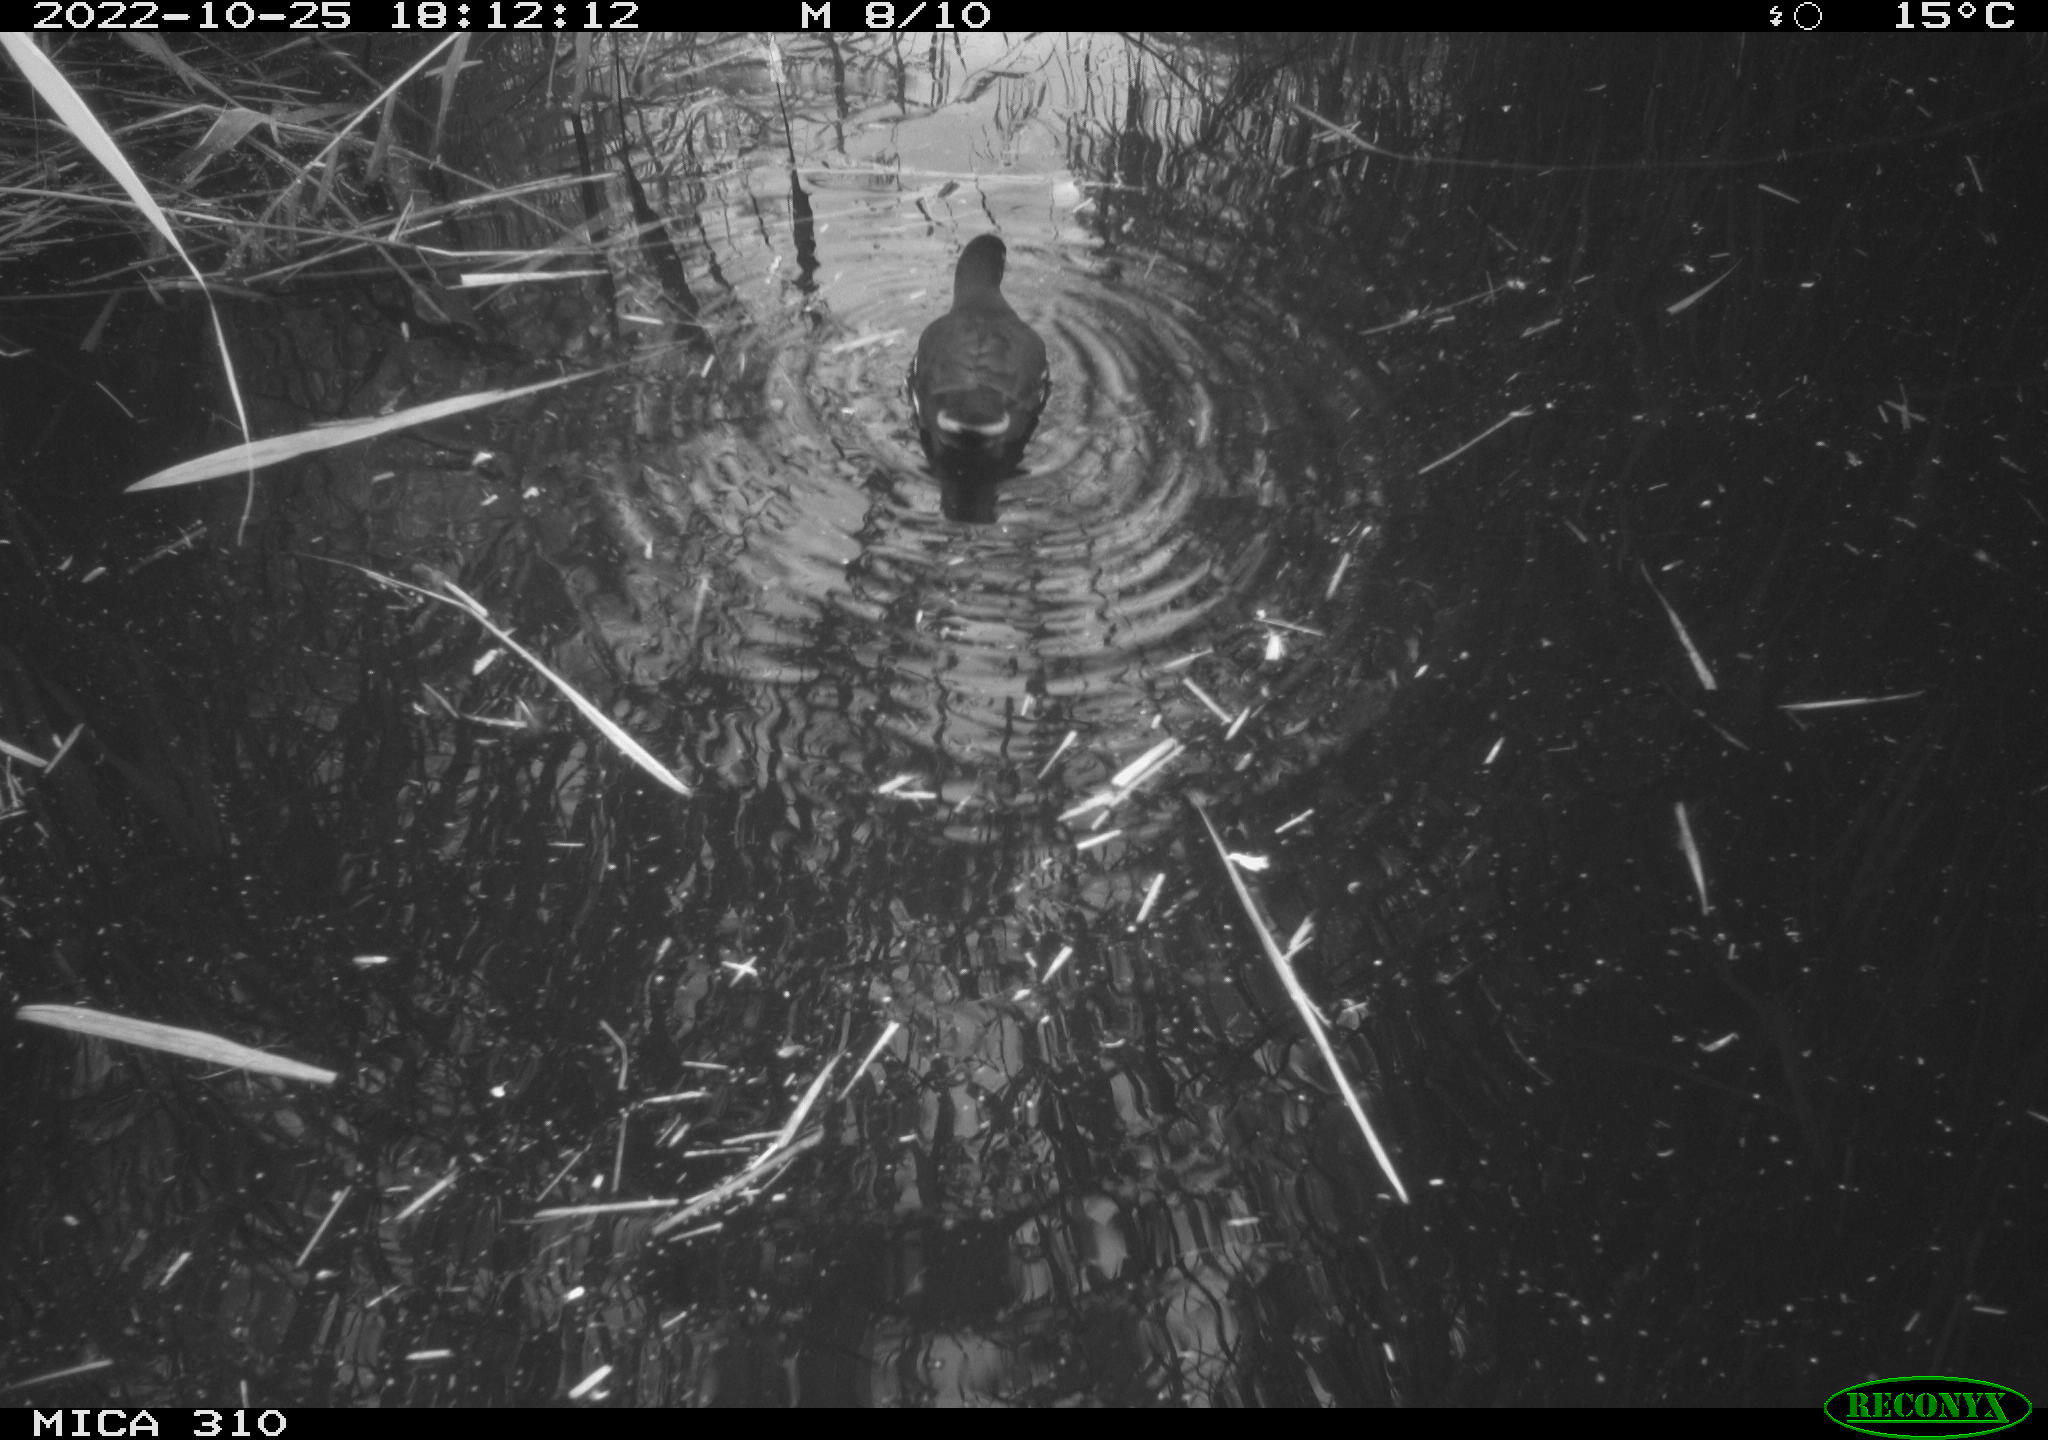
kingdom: Animalia
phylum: Chordata
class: Aves
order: Gruiformes
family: Rallidae
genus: Gallinula
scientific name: Gallinula chloropus
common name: Common moorhen
